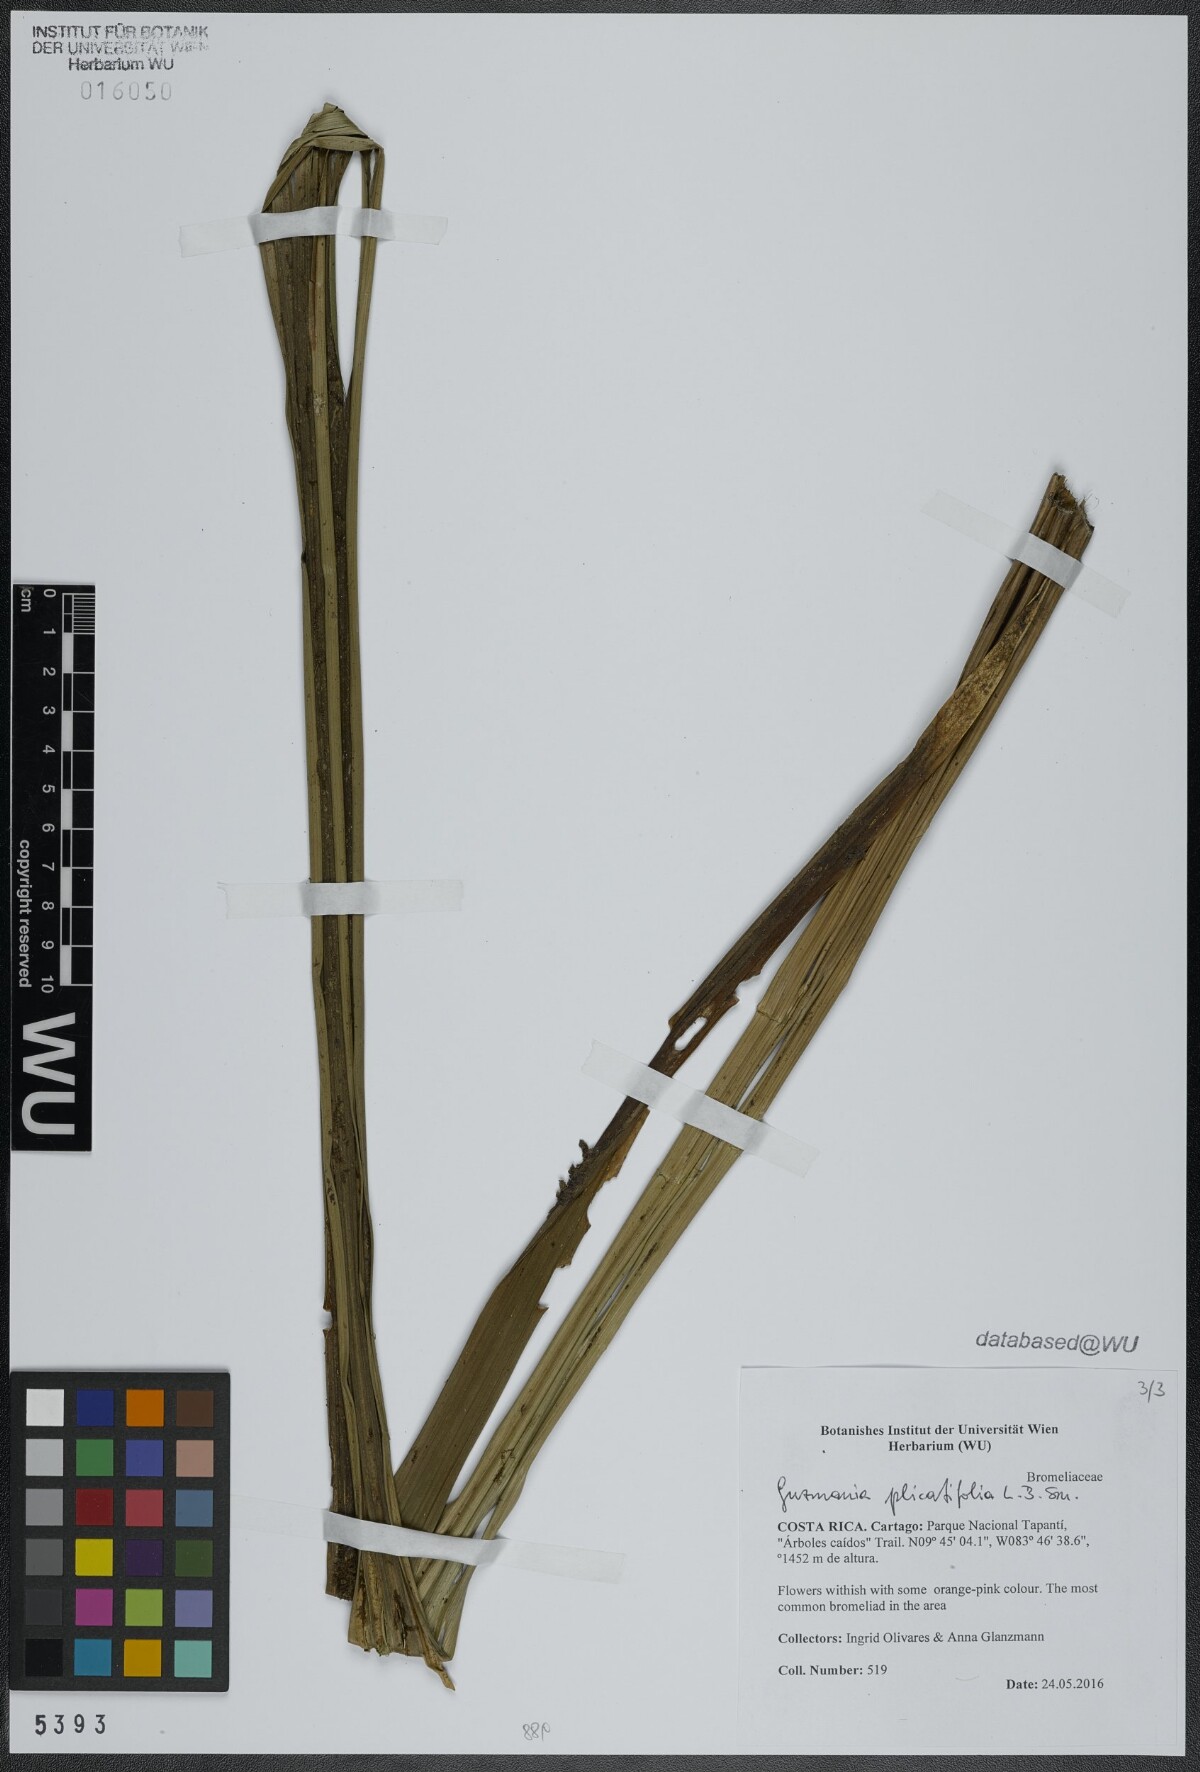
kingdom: Plantae
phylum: Tracheophyta
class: Liliopsida
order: Poales
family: Bromeliaceae
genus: Guzmania
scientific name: Guzmania plicatifolia
